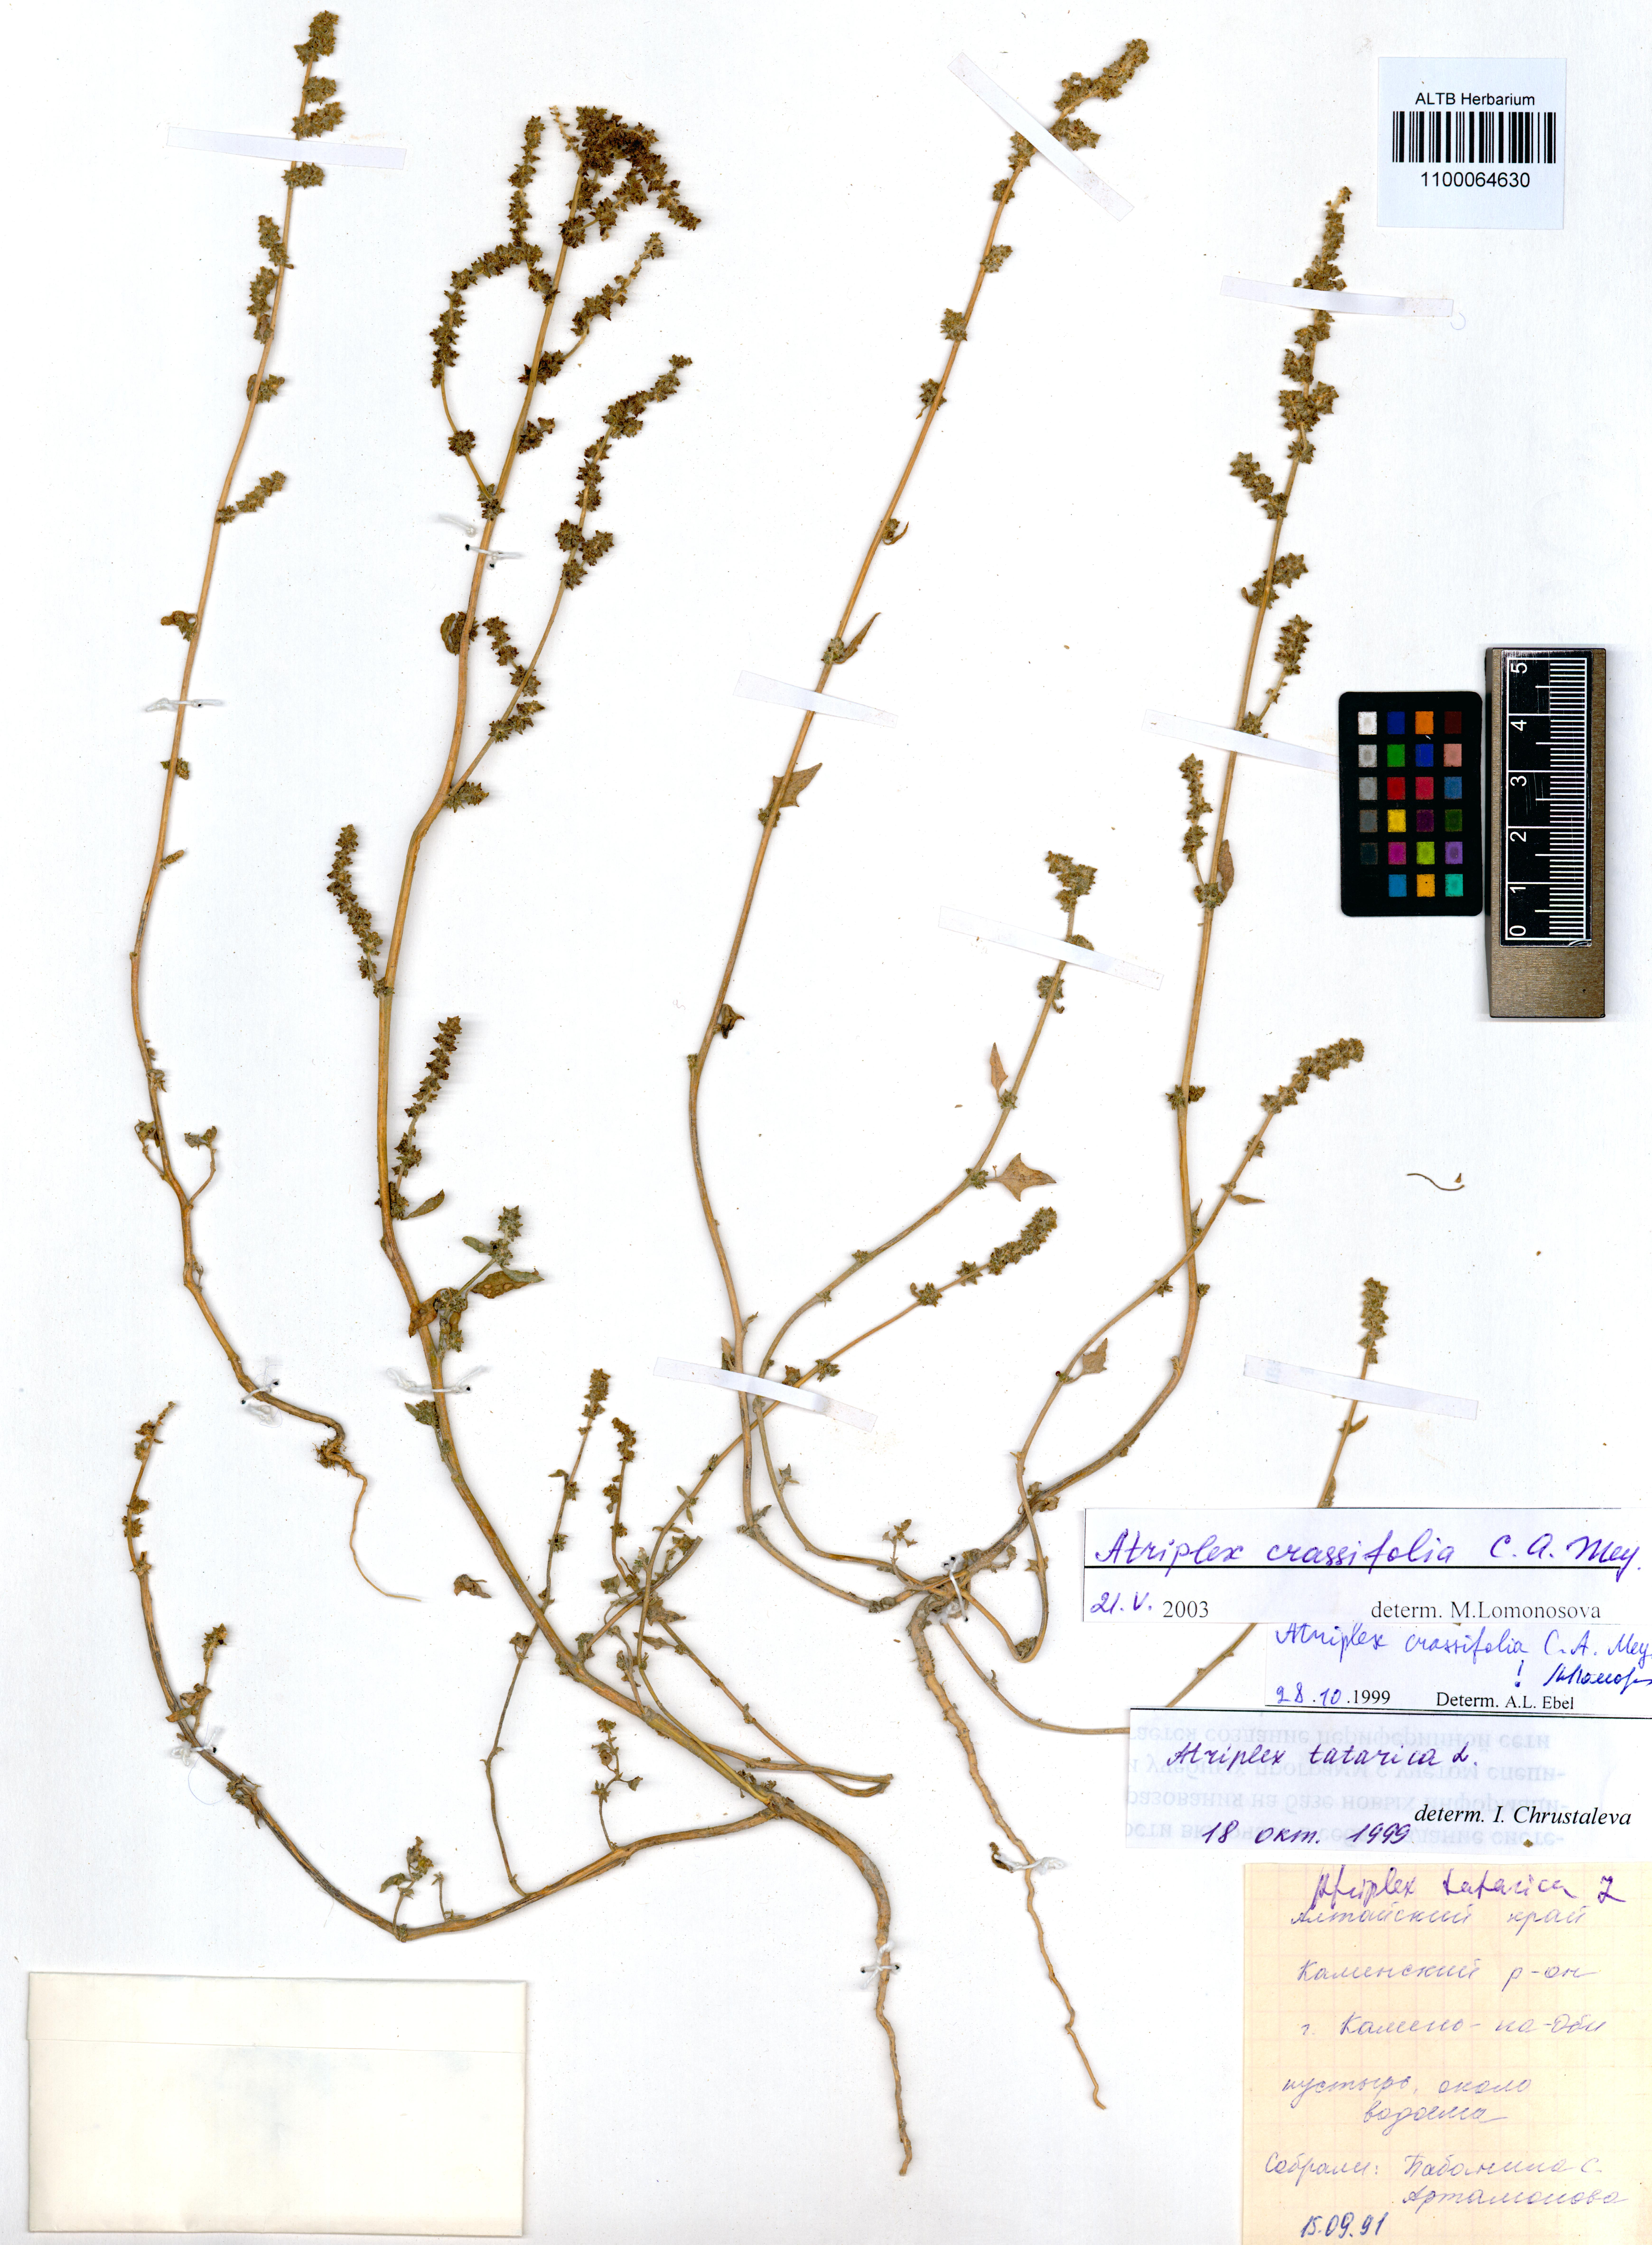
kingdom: Plantae
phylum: Tracheophyta
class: Magnoliopsida
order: Caryophyllales
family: Amaranthaceae
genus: Atriplex
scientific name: Atriplex crassifolia
